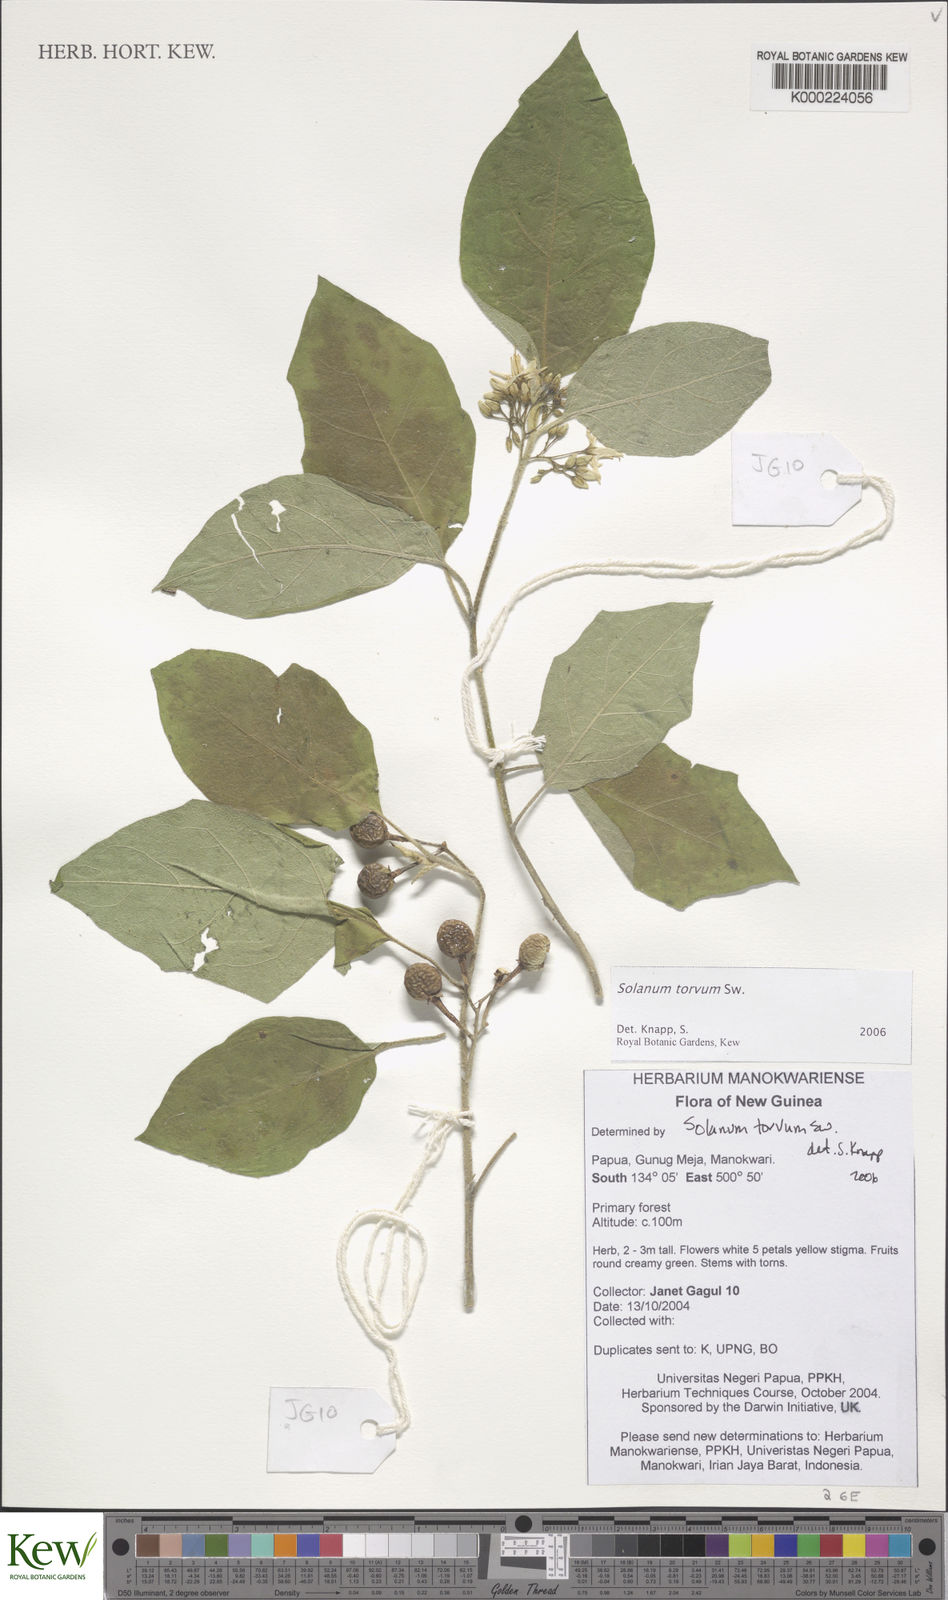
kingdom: Plantae
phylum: Tracheophyta
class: Magnoliopsida
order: Solanales
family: Solanaceae
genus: Solanum
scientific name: Solanum torvum
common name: Turkey berry
